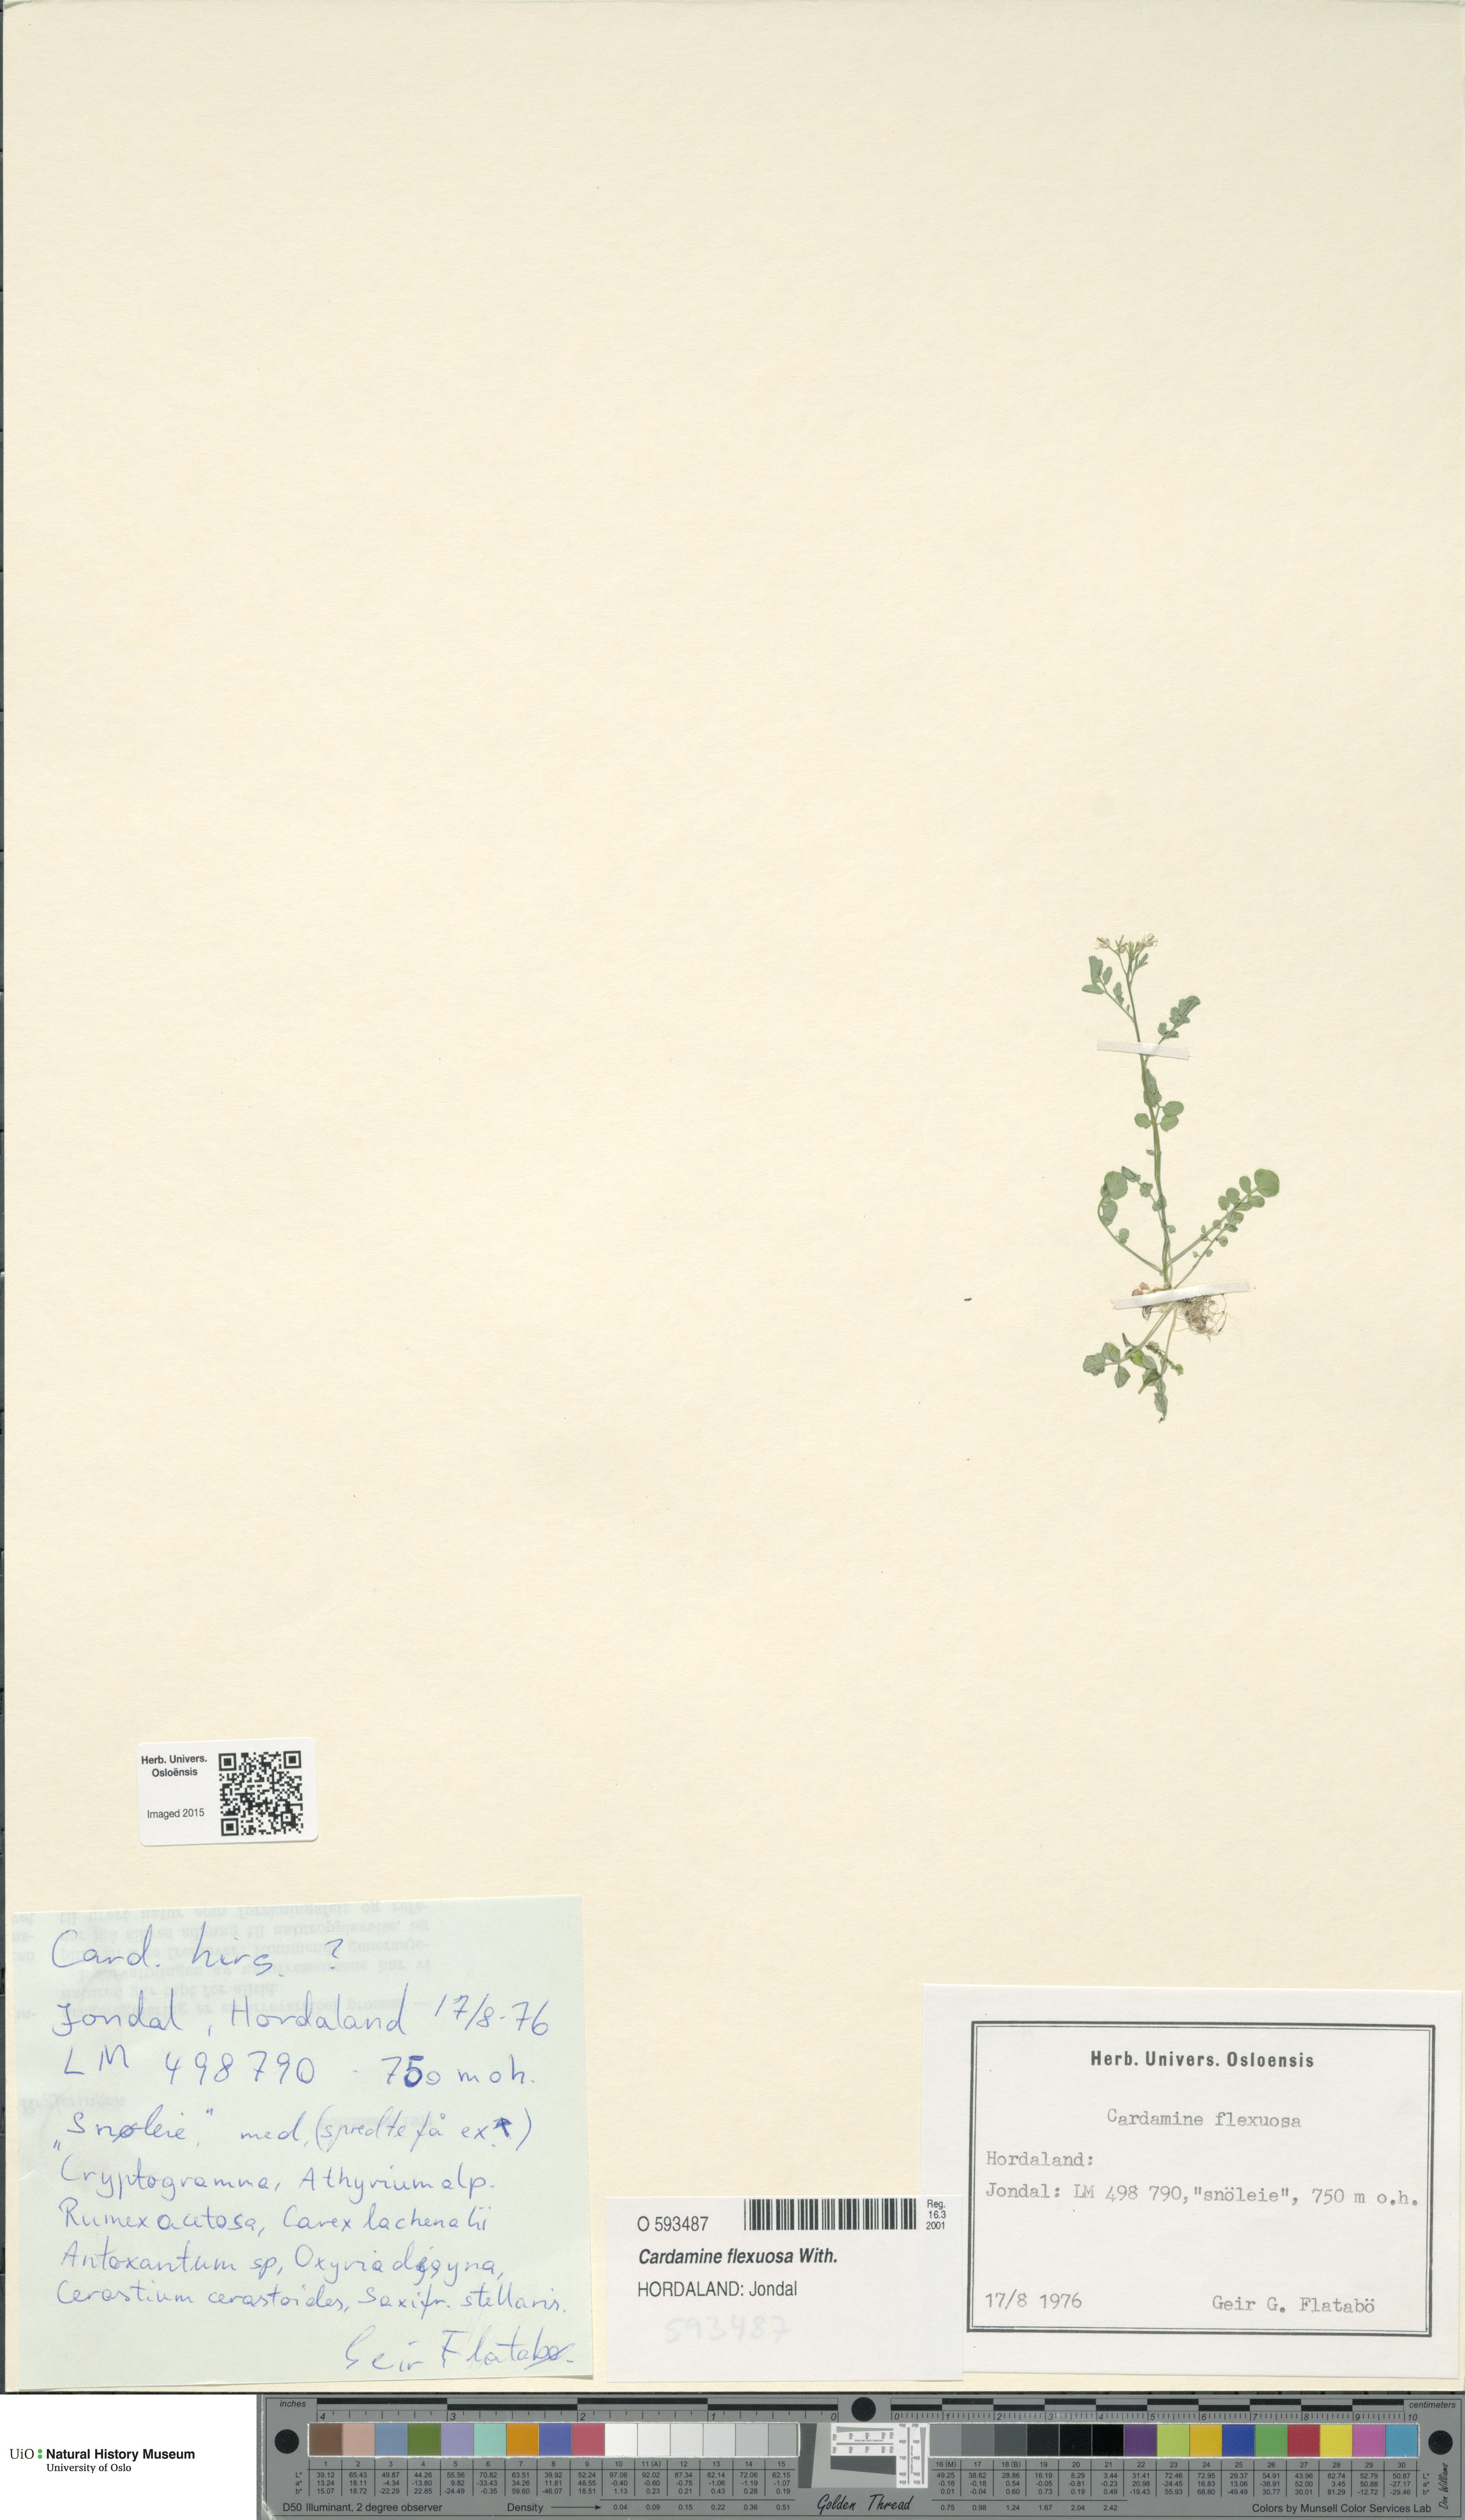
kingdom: Plantae
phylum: Tracheophyta
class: Magnoliopsida
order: Brassicales
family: Brassicaceae
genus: Cardamine
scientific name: Cardamine flexuosa
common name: Woodland bittercress
